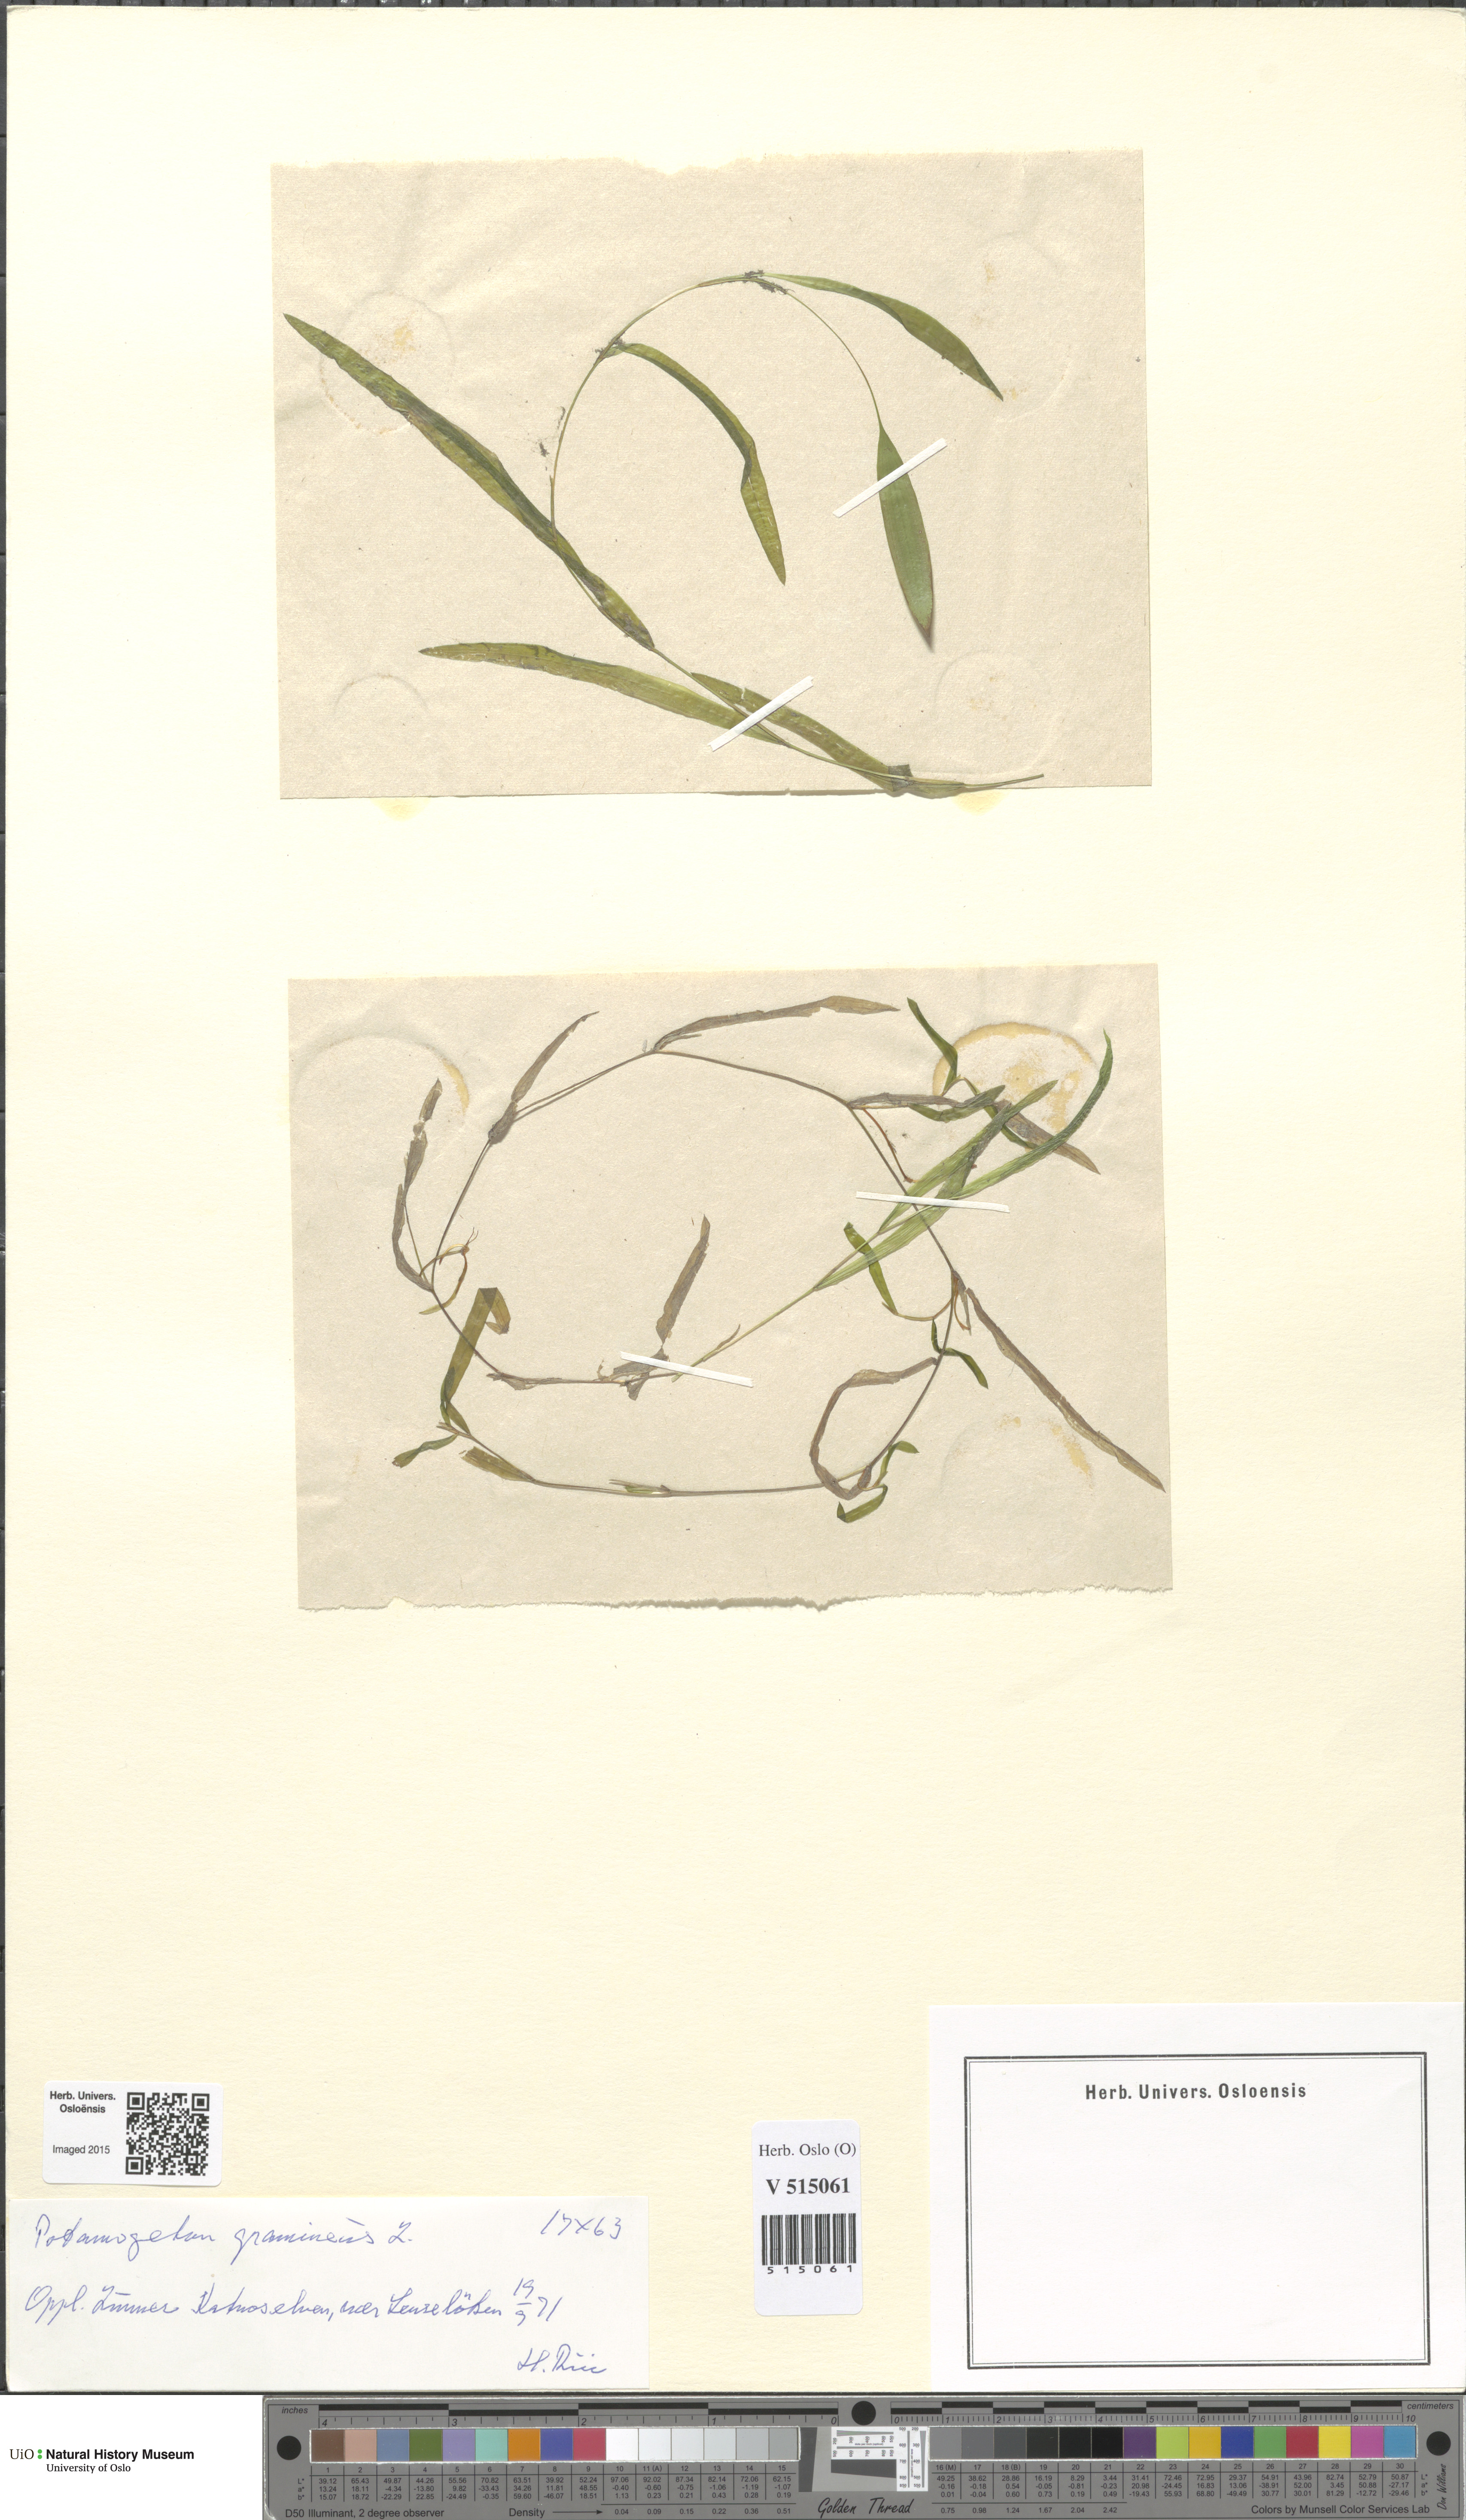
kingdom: Plantae
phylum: Tracheophyta
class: Liliopsida
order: Alismatales
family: Potamogetonaceae
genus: Potamogeton
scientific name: Potamogeton gramineus
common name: Various-leaved pondweed
